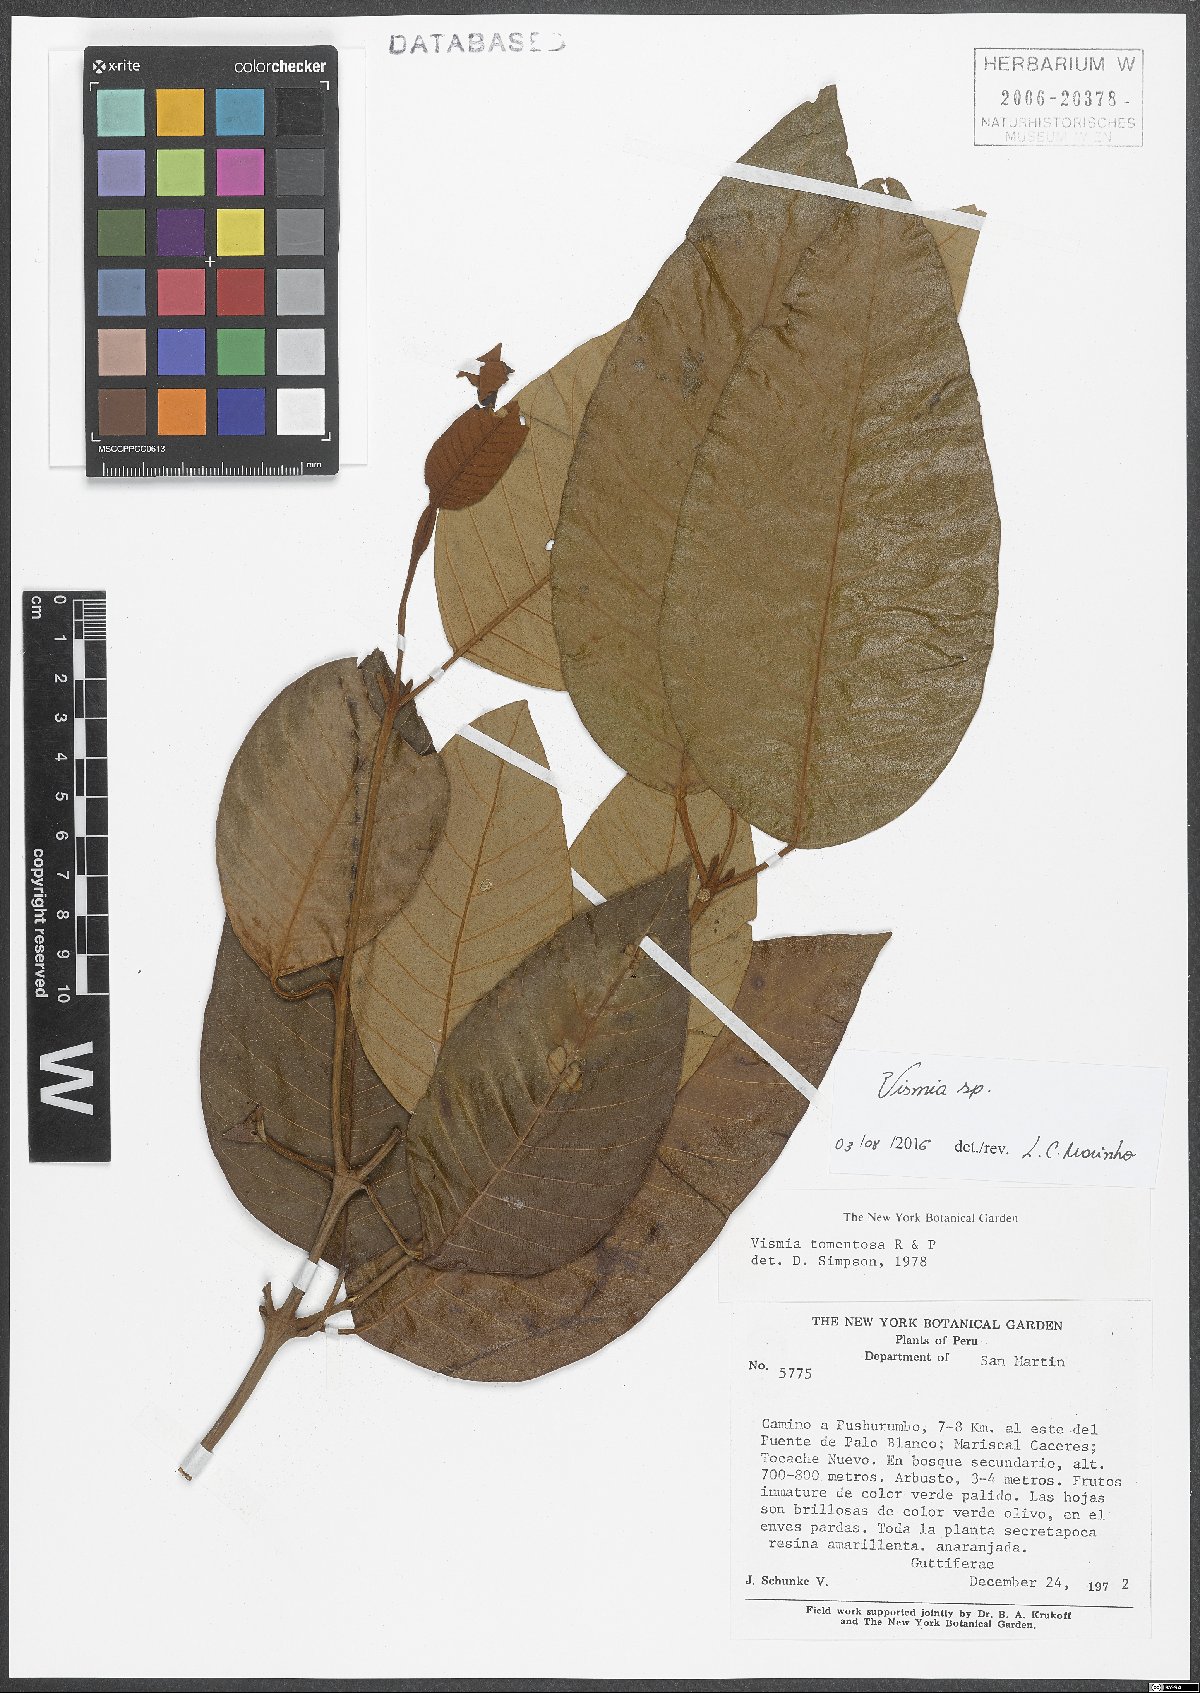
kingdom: Plantae
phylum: Tracheophyta
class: Magnoliopsida
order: Malpighiales
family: Hypericaceae
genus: Vismia
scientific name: Vismia
